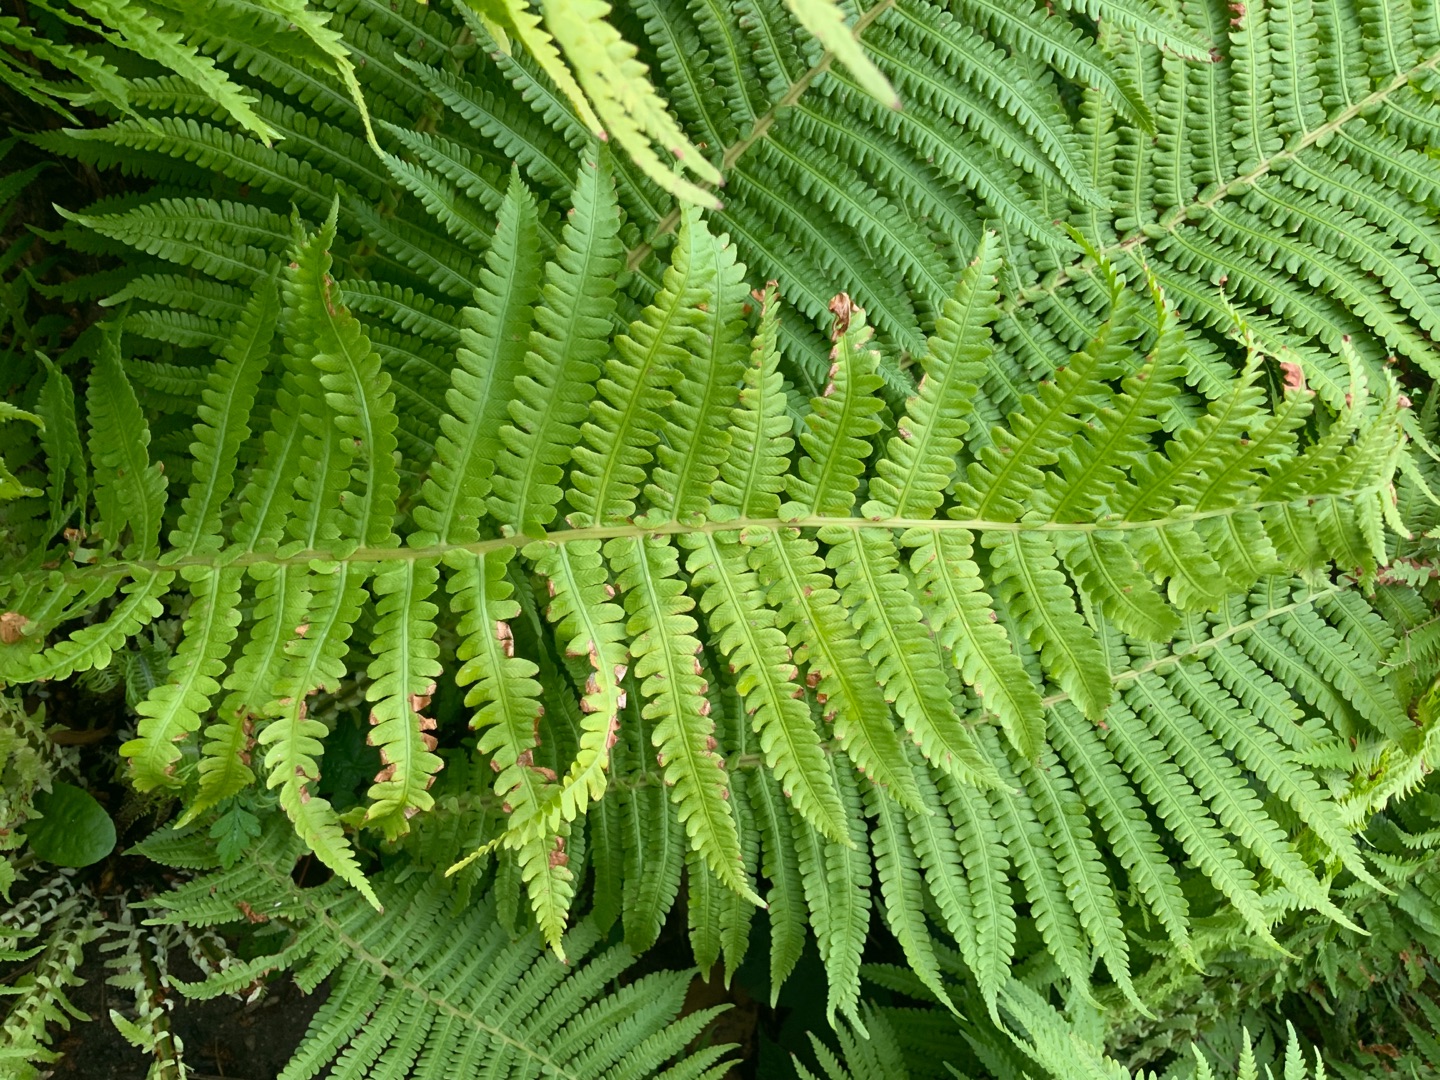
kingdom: Plantae
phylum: Tracheophyta
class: Polypodiopsida
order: Polypodiales
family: Onocleaceae
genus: Matteuccia
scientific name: Matteuccia struthiopteris
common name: Strudsvinge
